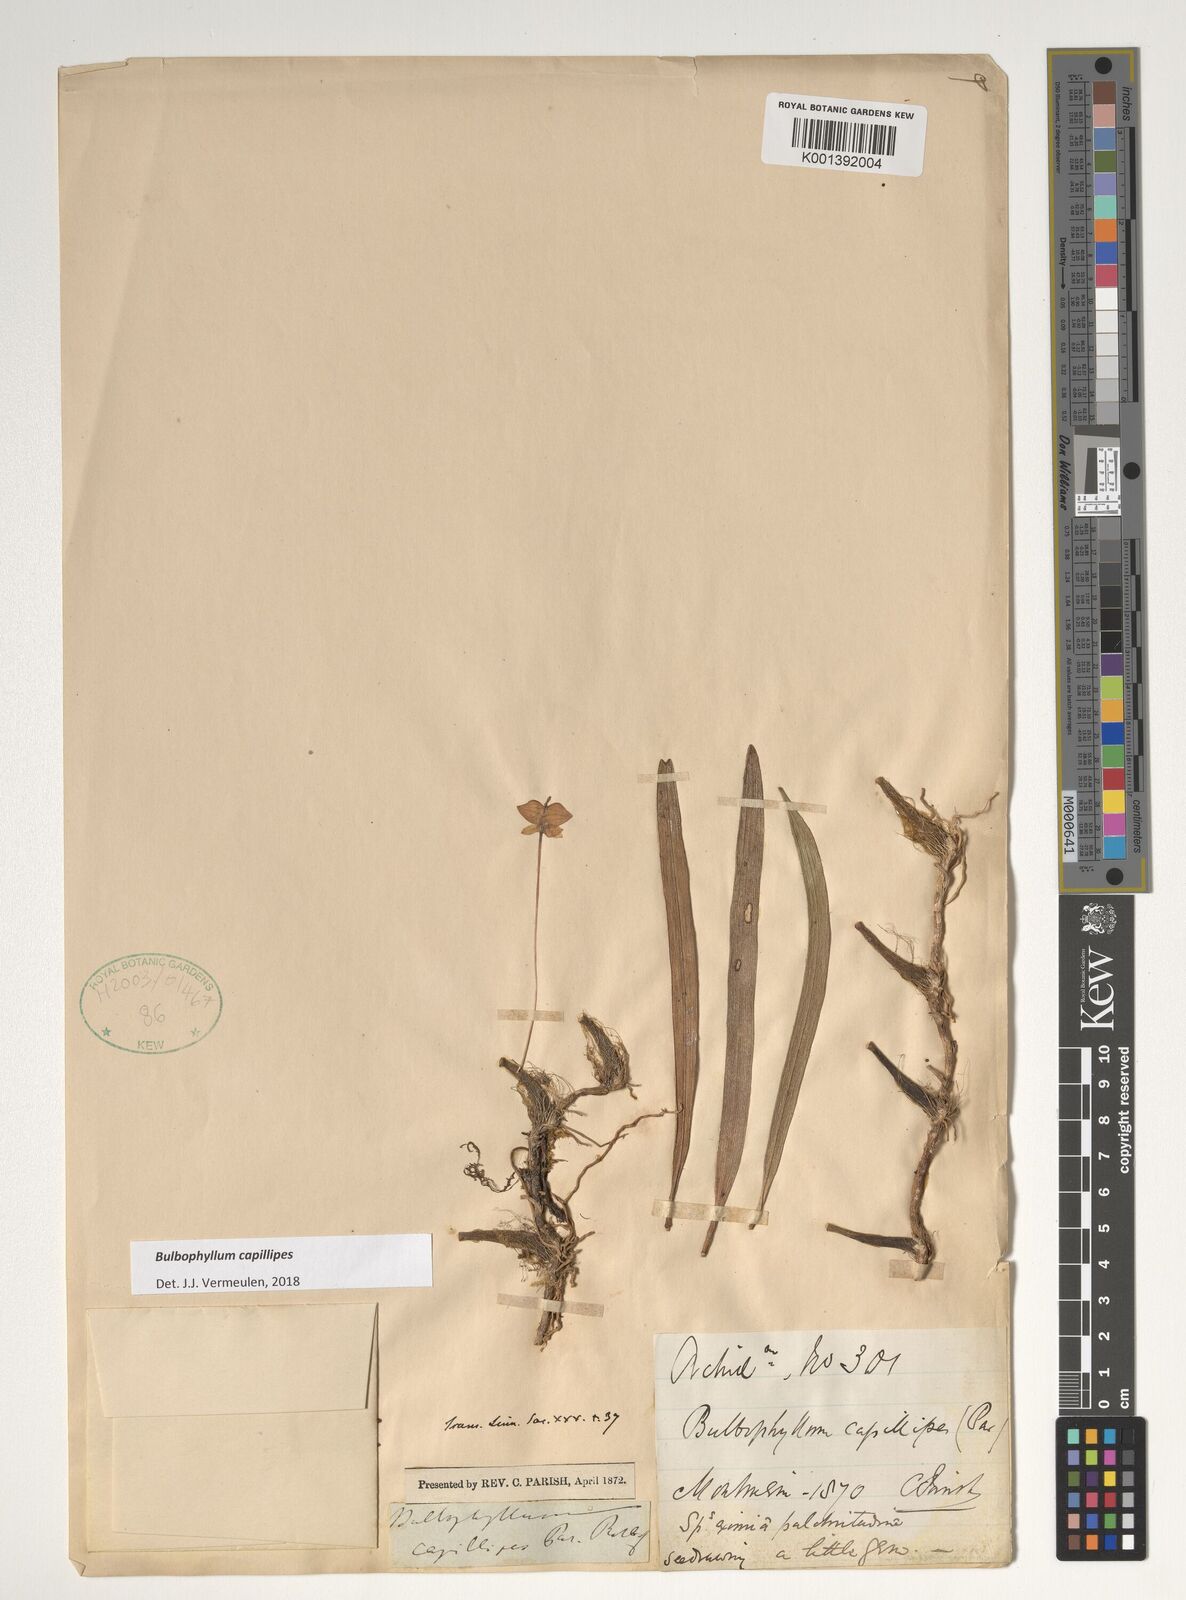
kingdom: Plantae
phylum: Tracheophyta
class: Liliopsida
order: Asparagales
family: Orchidaceae
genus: Bulbophyllum
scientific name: Bulbophyllum capillipes
